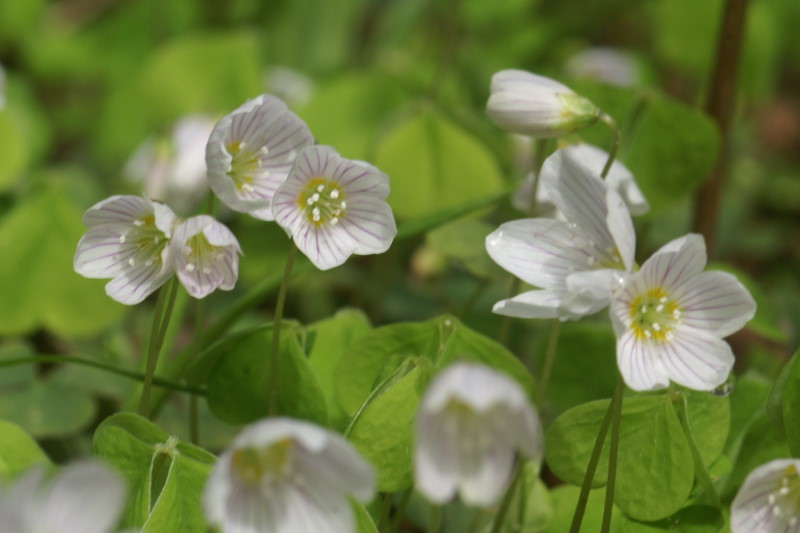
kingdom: Plantae
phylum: Tracheophyta
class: Magnoliopsida
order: Oxalidales
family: Oxalidaceae
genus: Oxalis
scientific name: Oxalis acetosella
